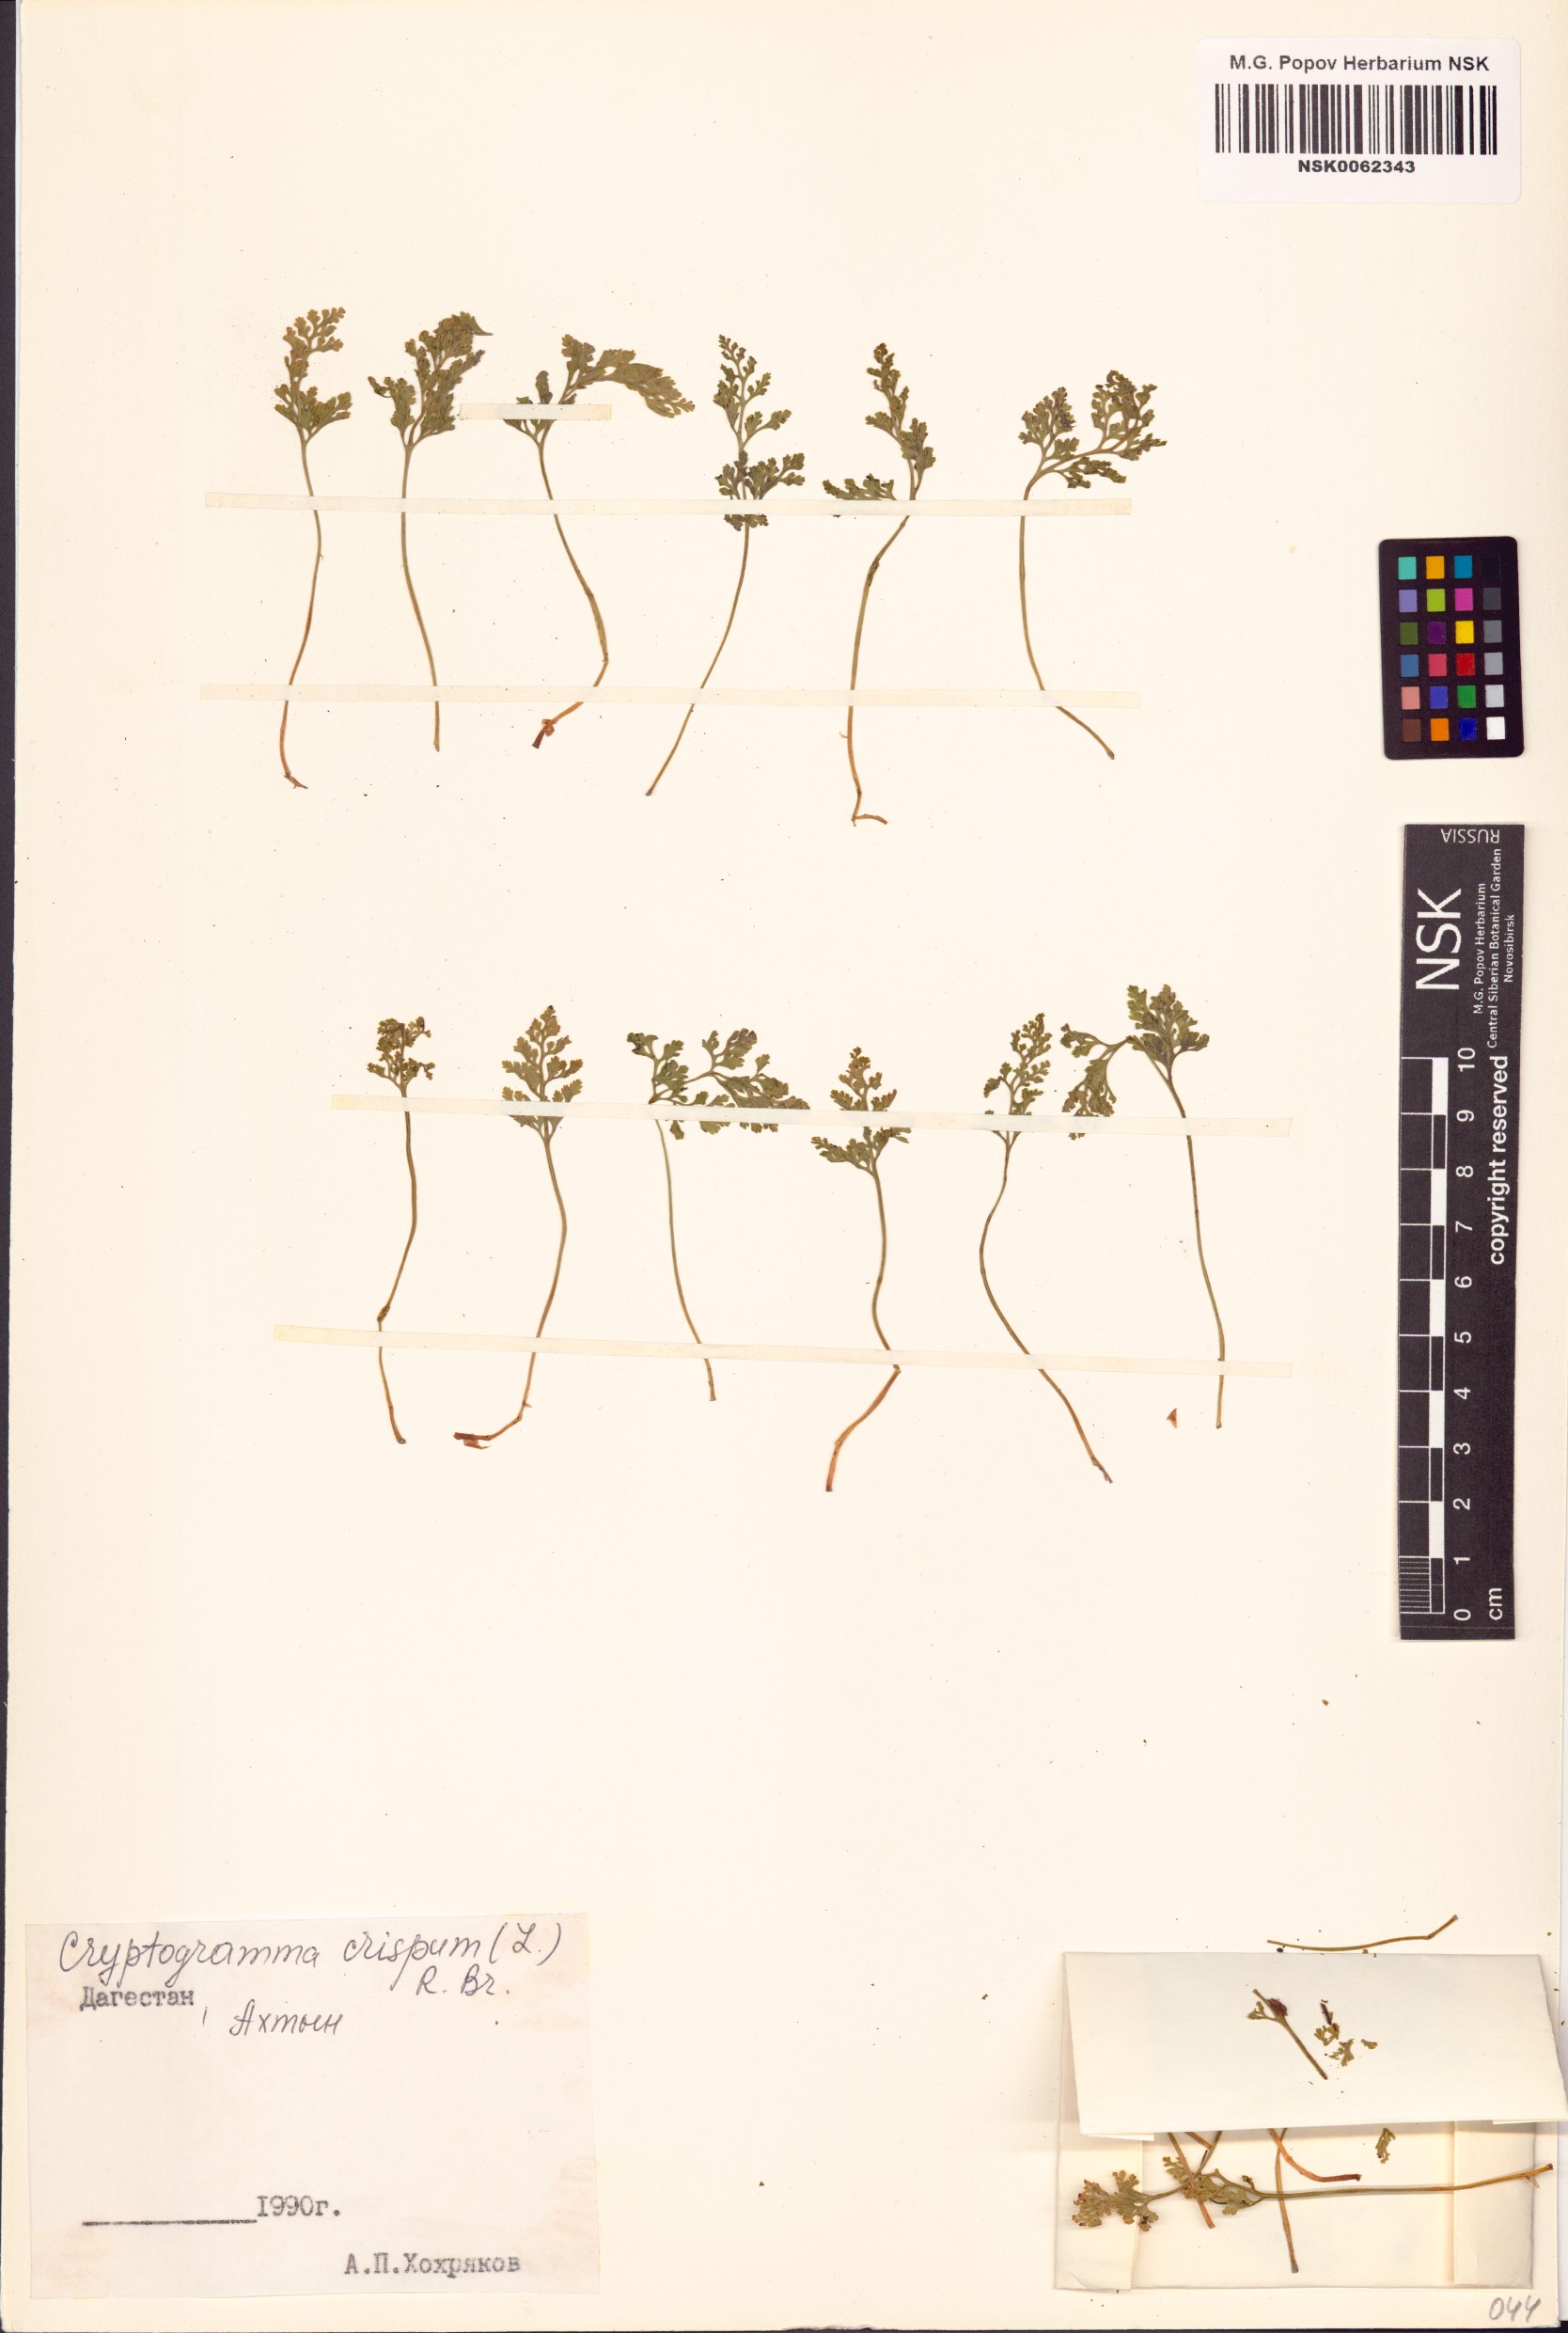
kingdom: Plantae
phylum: Tracheophyta
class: Polypodiopsida
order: Polypodiales
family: Pteridaceae
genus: Cryptogramma
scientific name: Cryptogramma crispa
